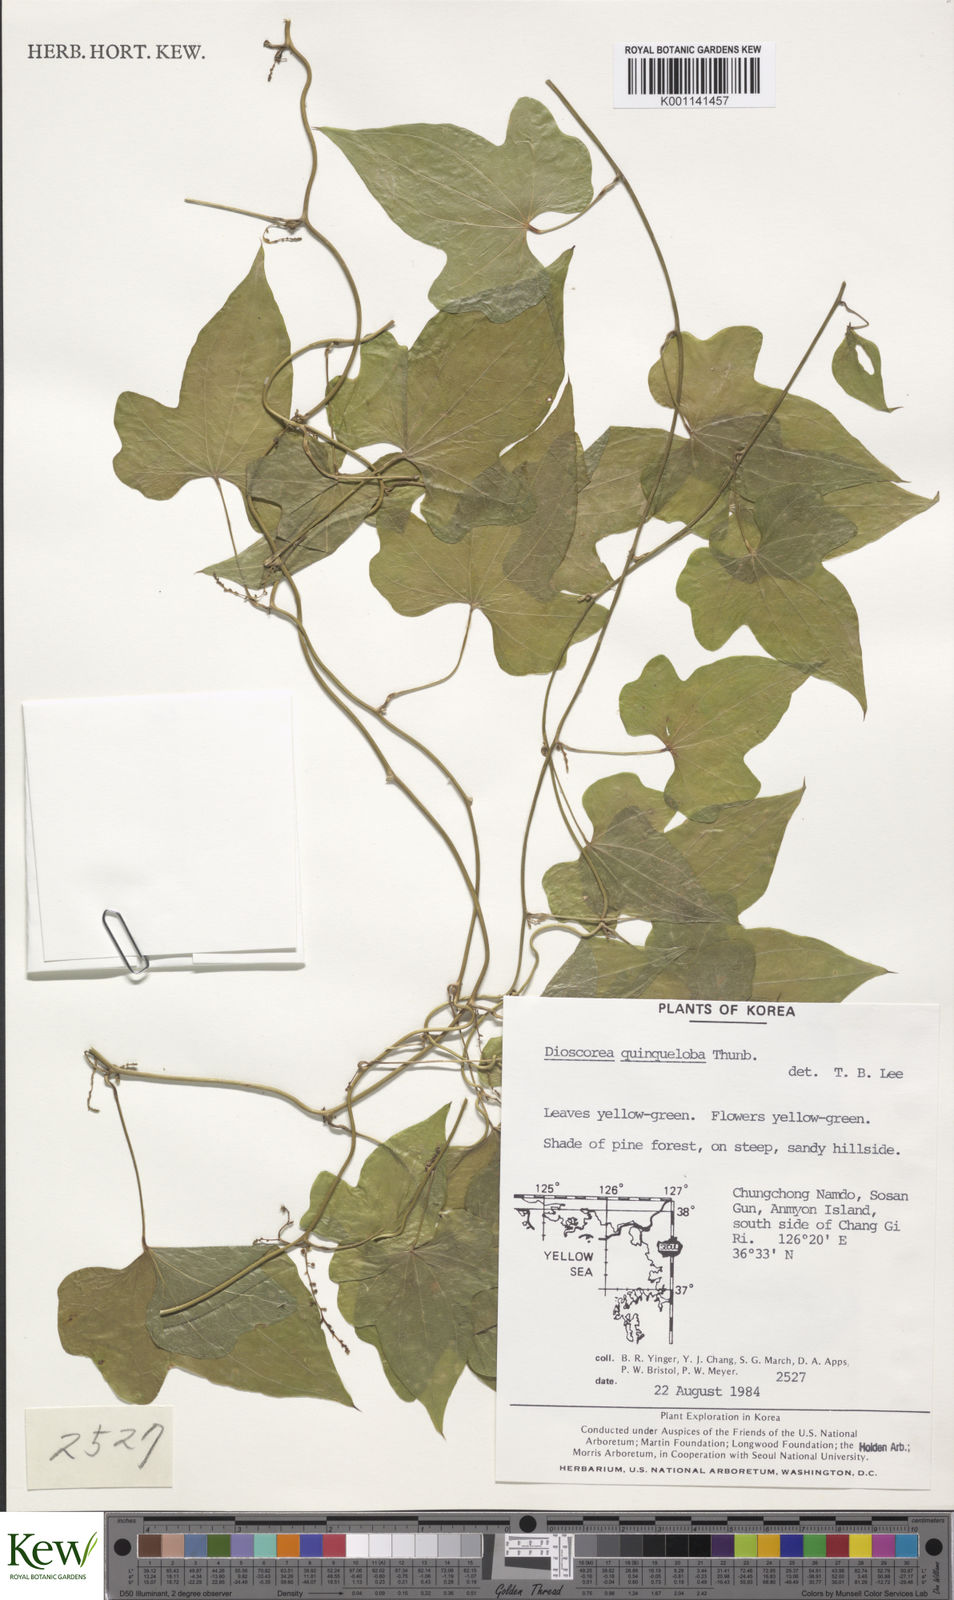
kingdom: Plantae
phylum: Tracheophyta
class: Liliopsida
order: Dioscoreales
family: Dioscoreaceae
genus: Dioscorea
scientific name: Dioscorea quinquelobata
